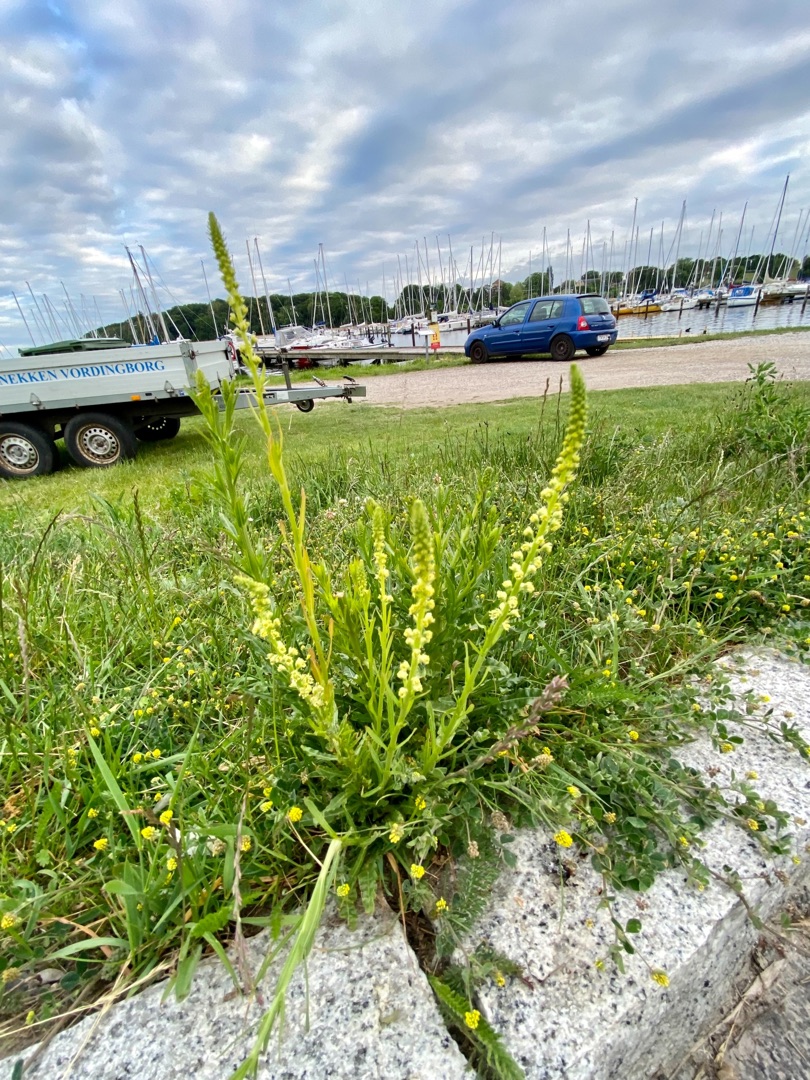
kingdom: Plantae
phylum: Tracheophyta
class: Magnoliopsida
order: Brassicales
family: Resedaceae
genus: Reseda
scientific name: Reseda luteola
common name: Farve-reseda
